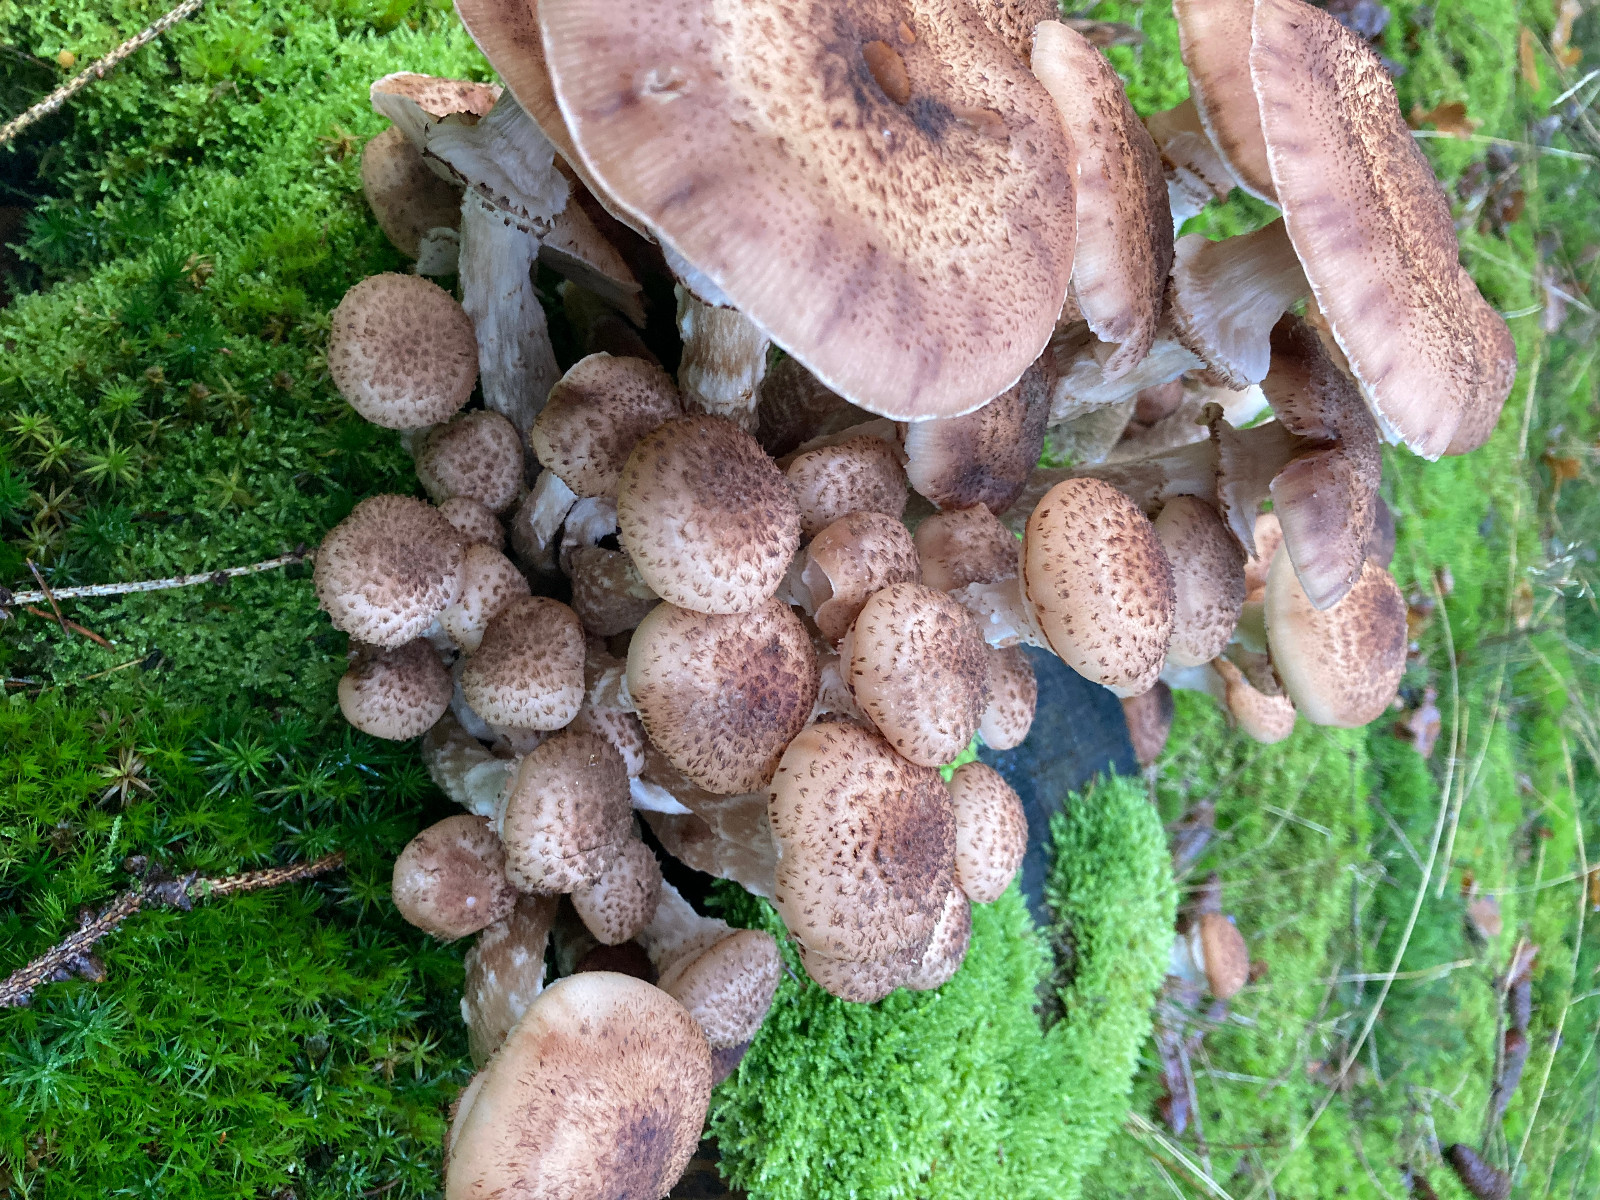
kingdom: Fungi
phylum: Basidiomycota
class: Agaricomycetes
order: Agaricales
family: Physalacriaceae
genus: Armillaria
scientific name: Armillaria ostoyae
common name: mørk honningsvamp
